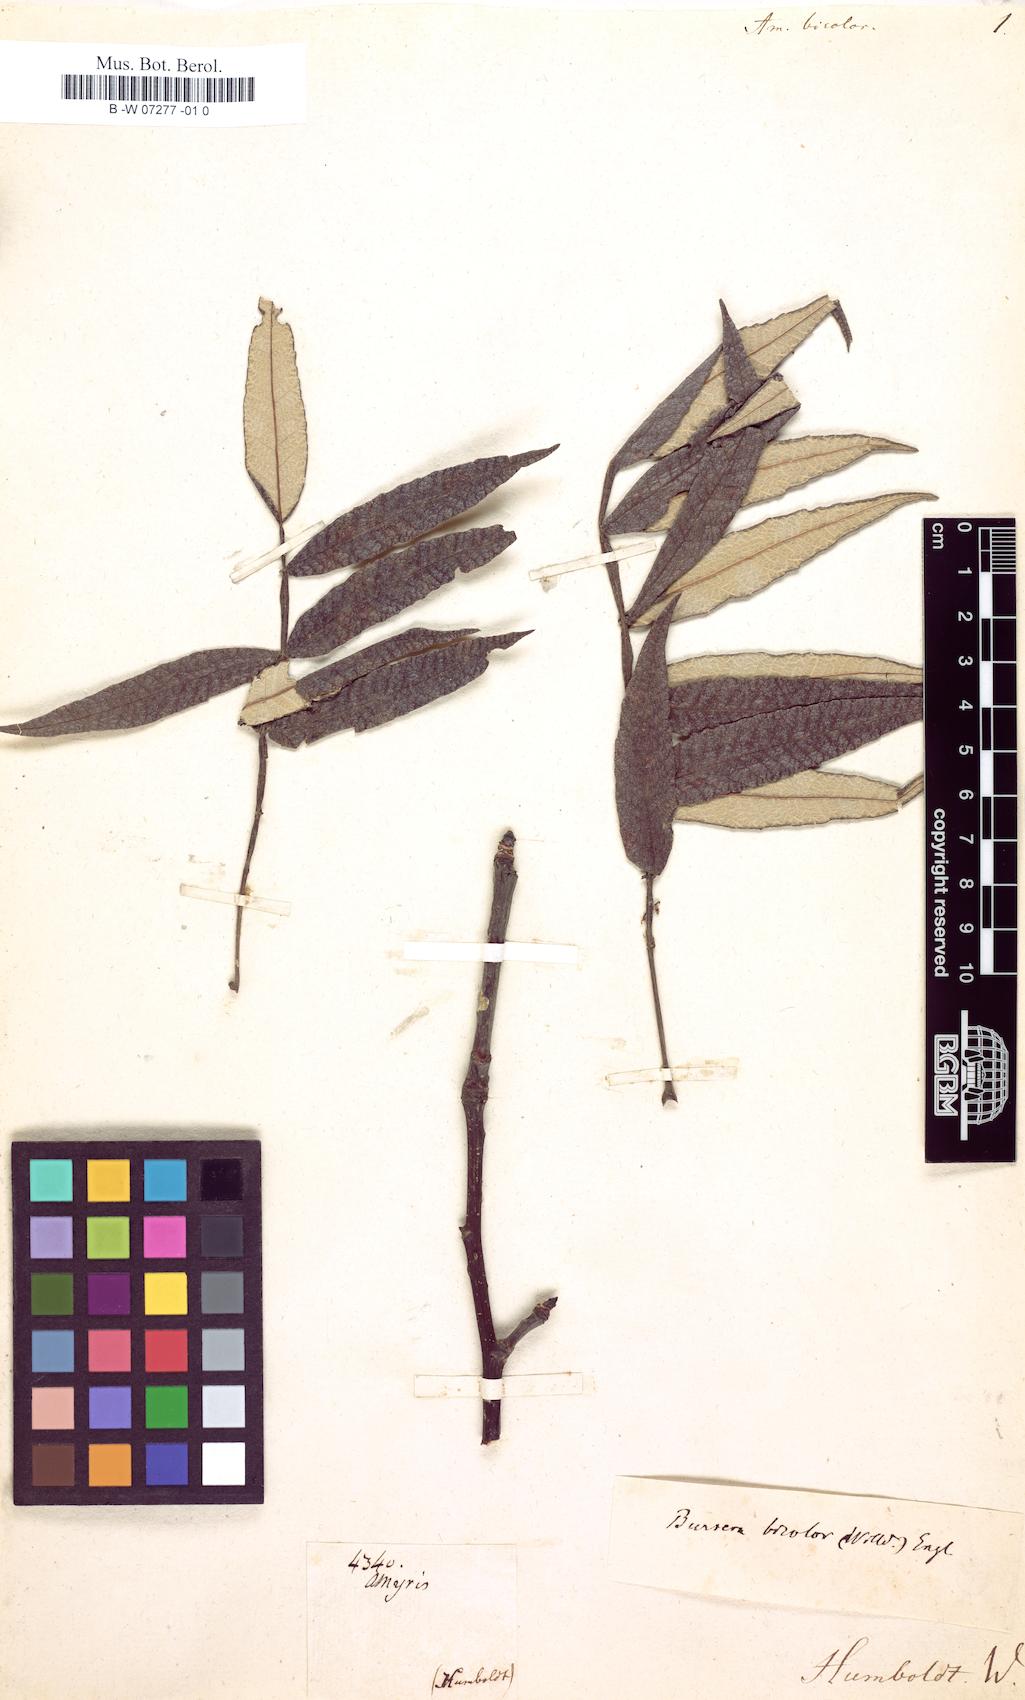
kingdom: Plantae
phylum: Tracheophyta
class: Magnoliopsida
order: Sapindales
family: Burseraceae
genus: Bursera
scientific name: Bursera bicolor
